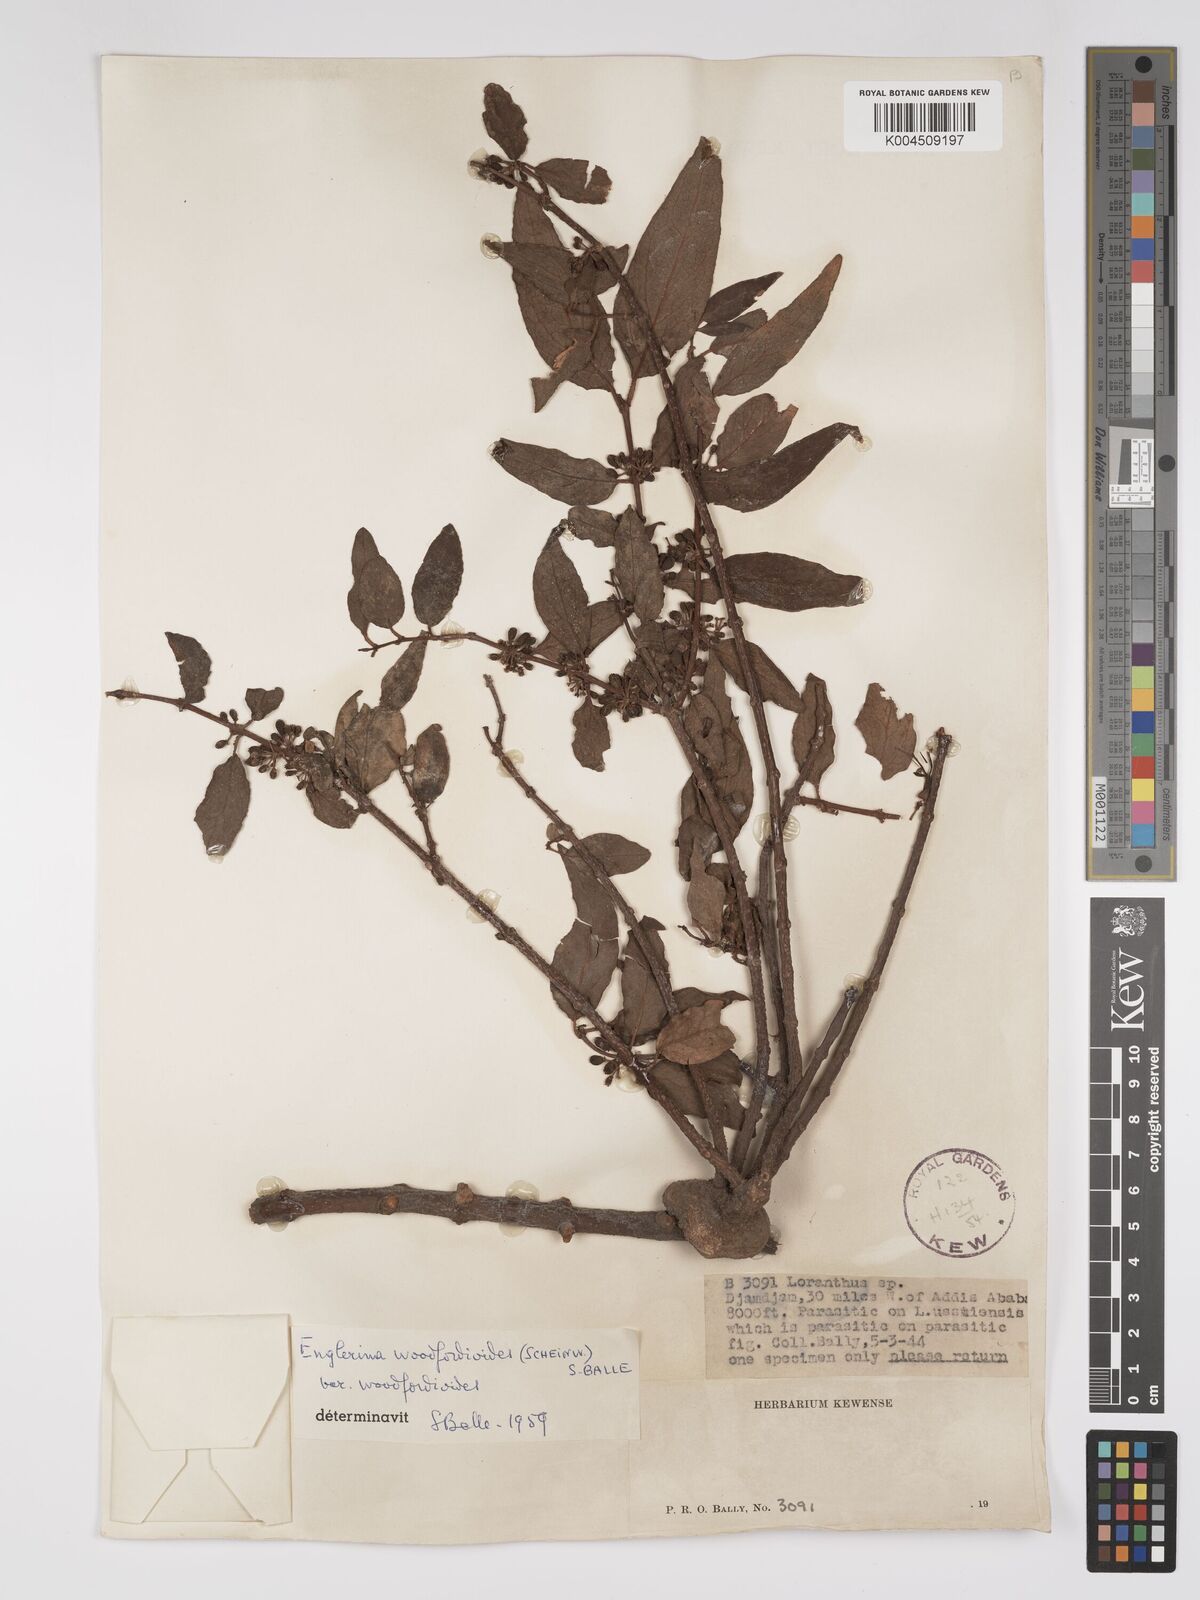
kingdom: Plantae
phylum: Tracheophyta
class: Magnoliopsida
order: Santalales
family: Loranthaceae
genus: Englerina
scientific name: Englerina woodfordioides
